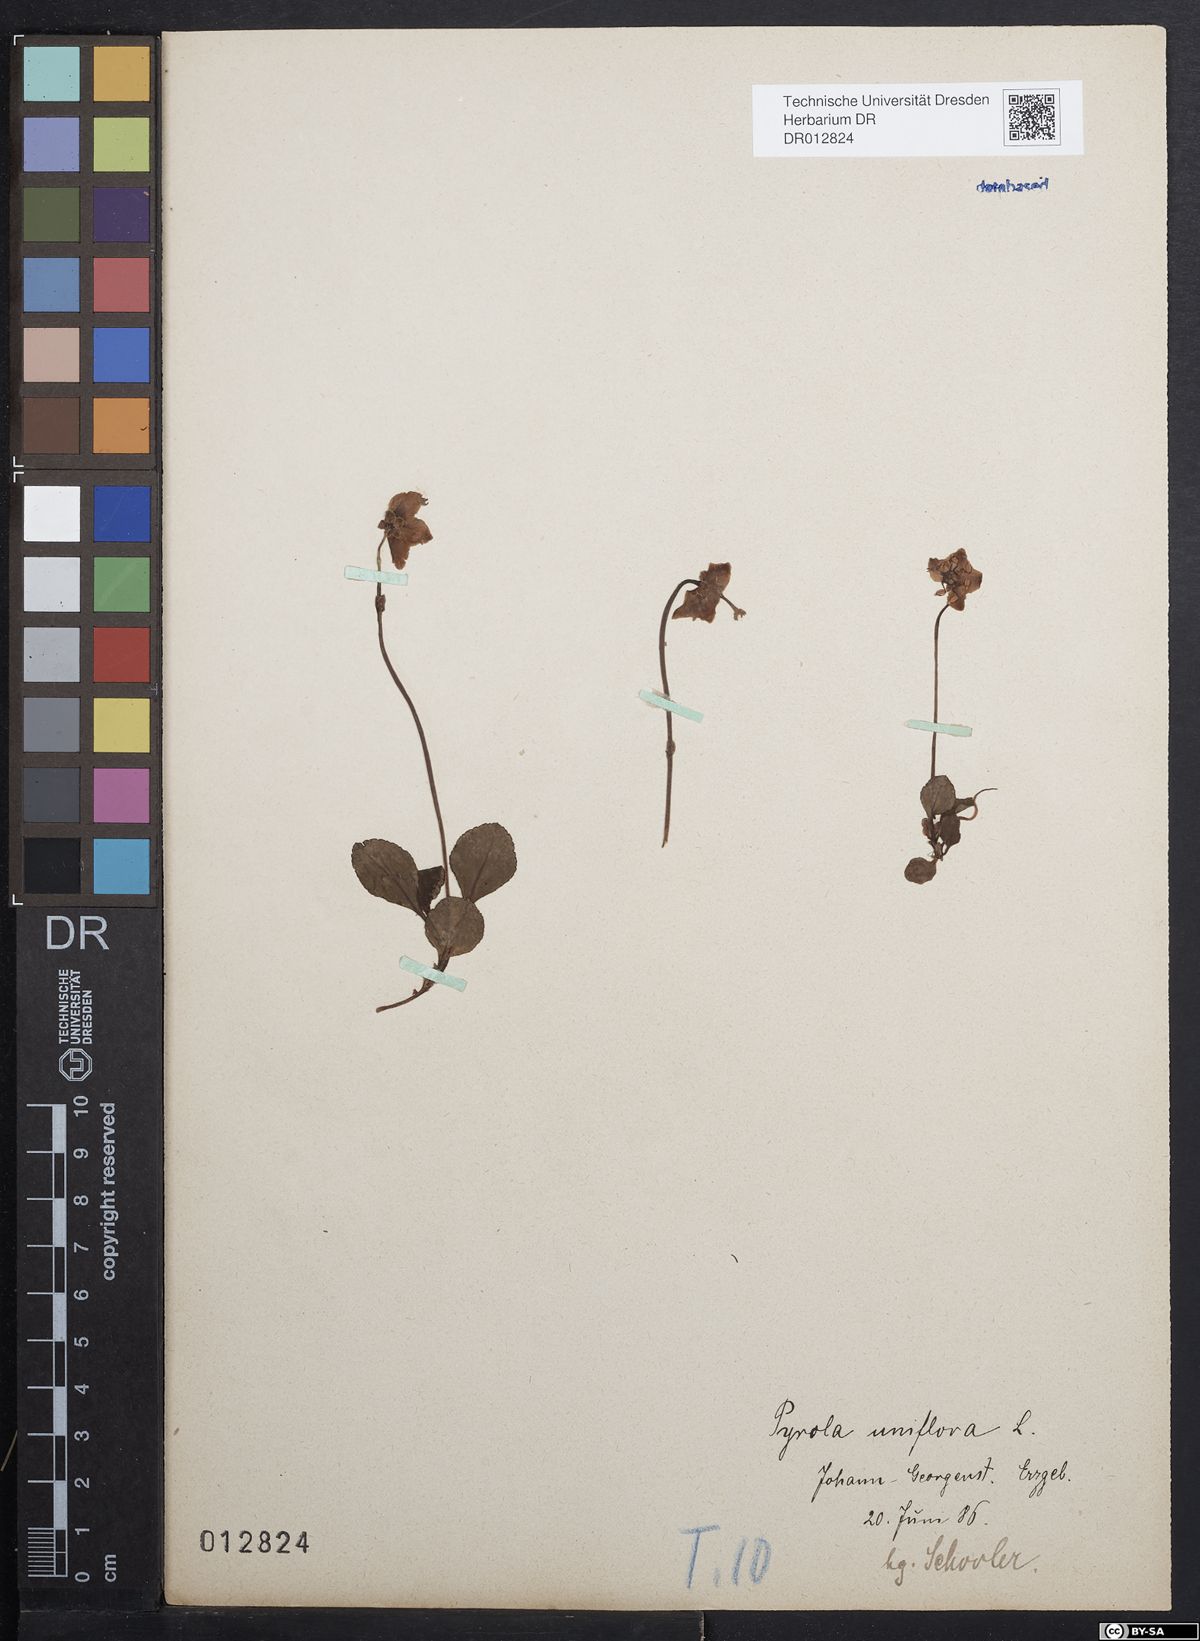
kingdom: Plantae
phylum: Tracheophyta
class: Magnoliopsida
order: Ericales
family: Ericaceae
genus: Moneses
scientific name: Moneses uniflora
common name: One-flowered wintergreen
